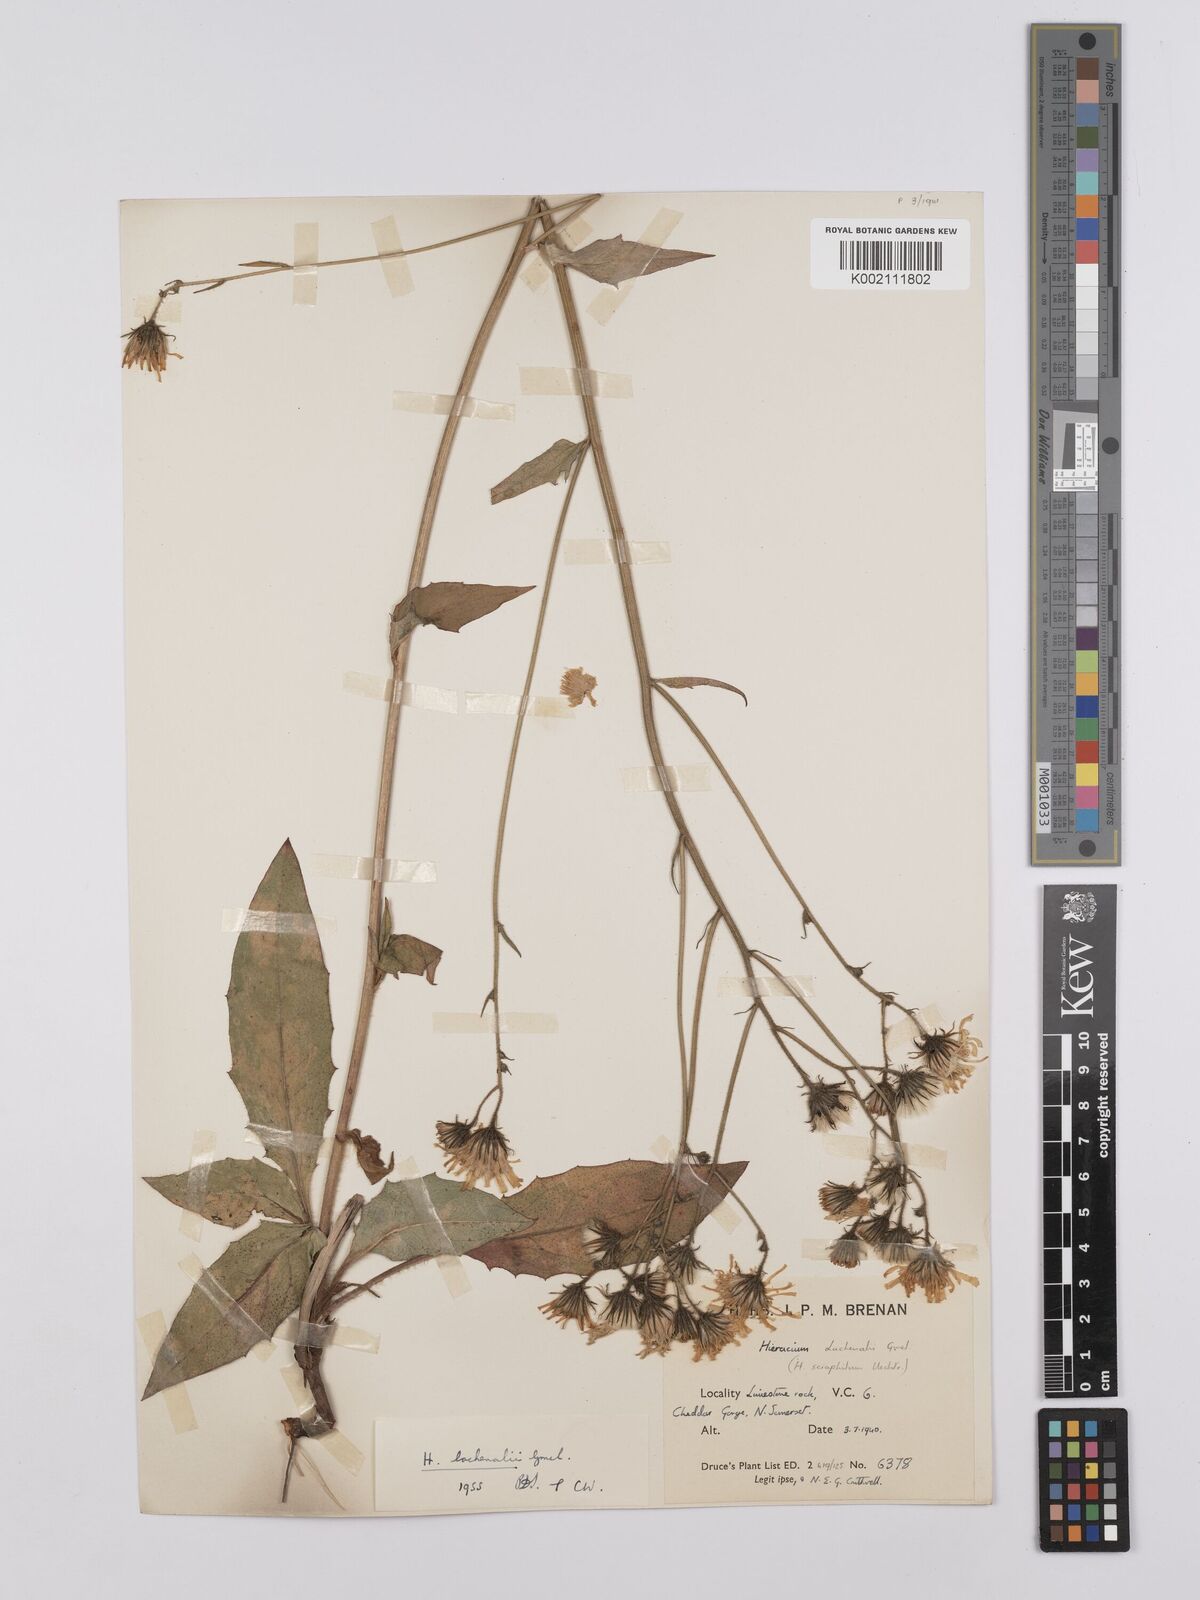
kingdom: Plantae
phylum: Tracheophyta
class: Magnoliopsida
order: Asterales
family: Asteraceae
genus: Hieracium
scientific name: Hieracium
